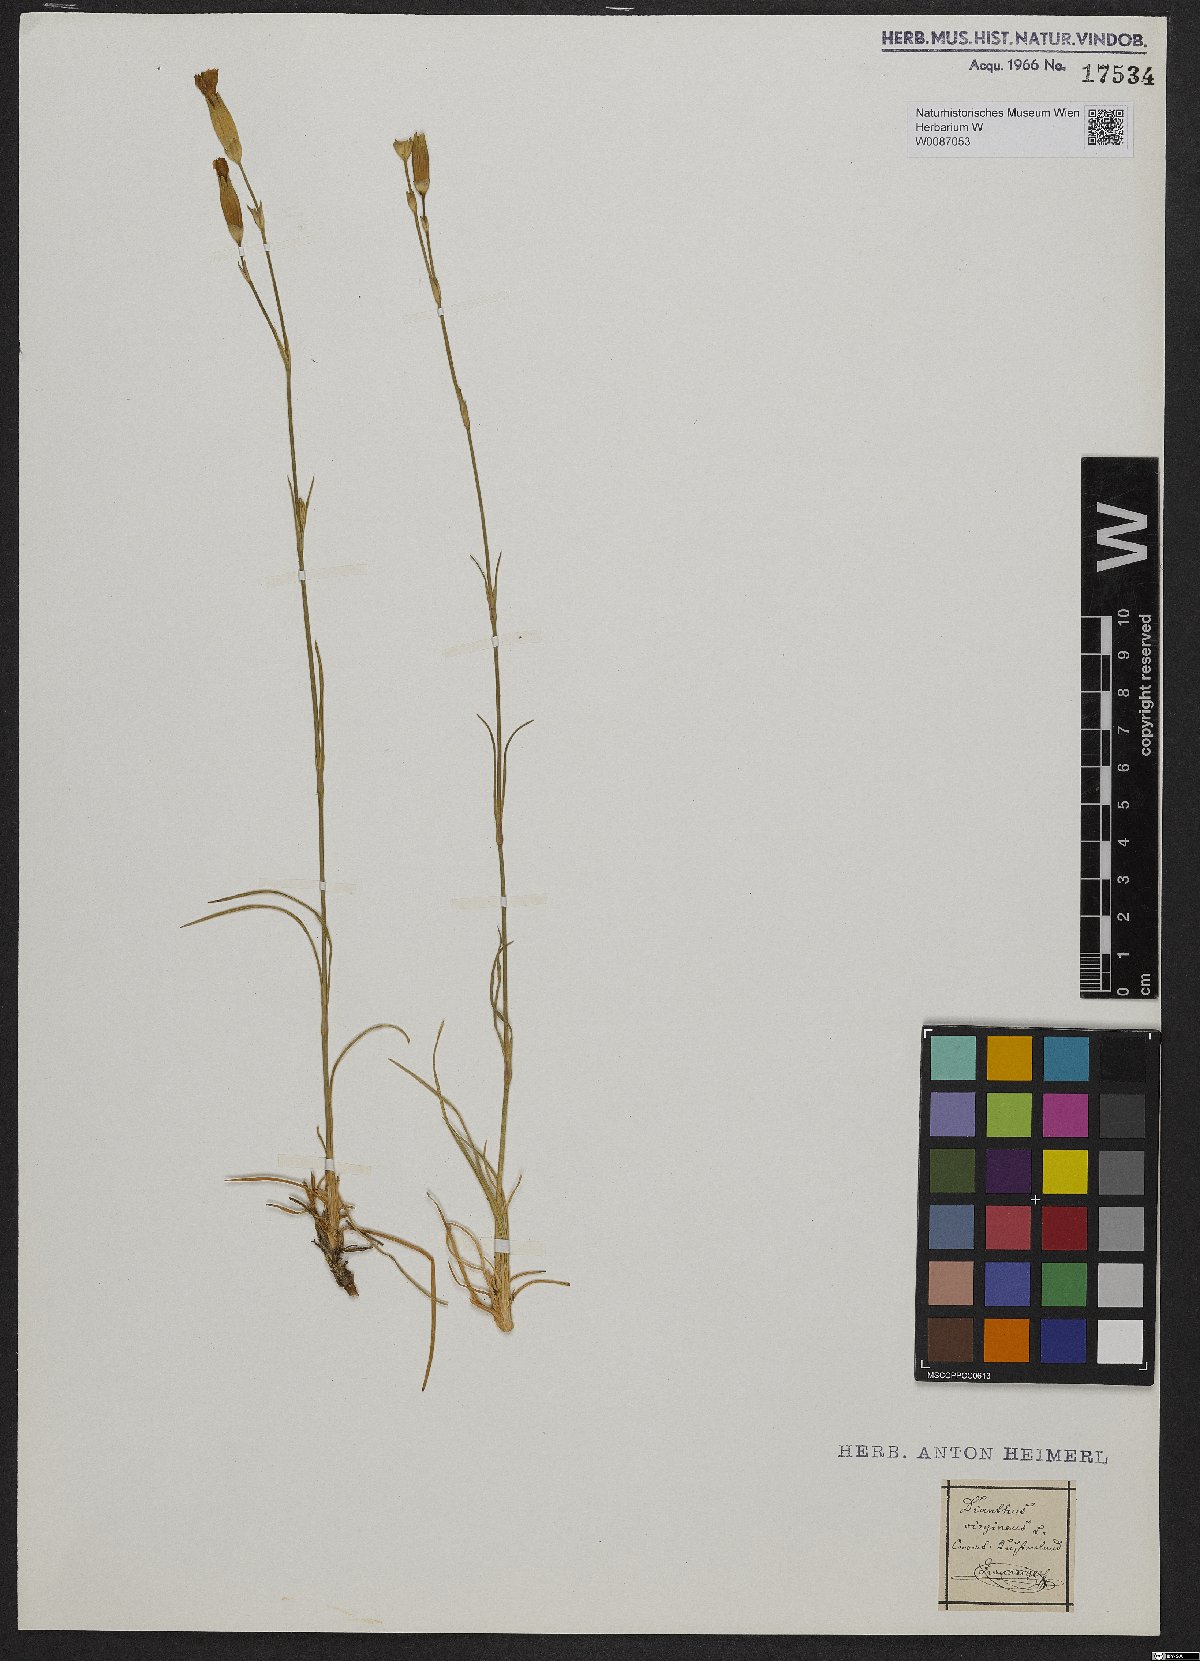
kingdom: Plantae
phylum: Tracheophyta
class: Magnoliopsida
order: Caryophyllales
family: Caryophyllaceae
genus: Dianthus
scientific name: Dianthus virgineus
